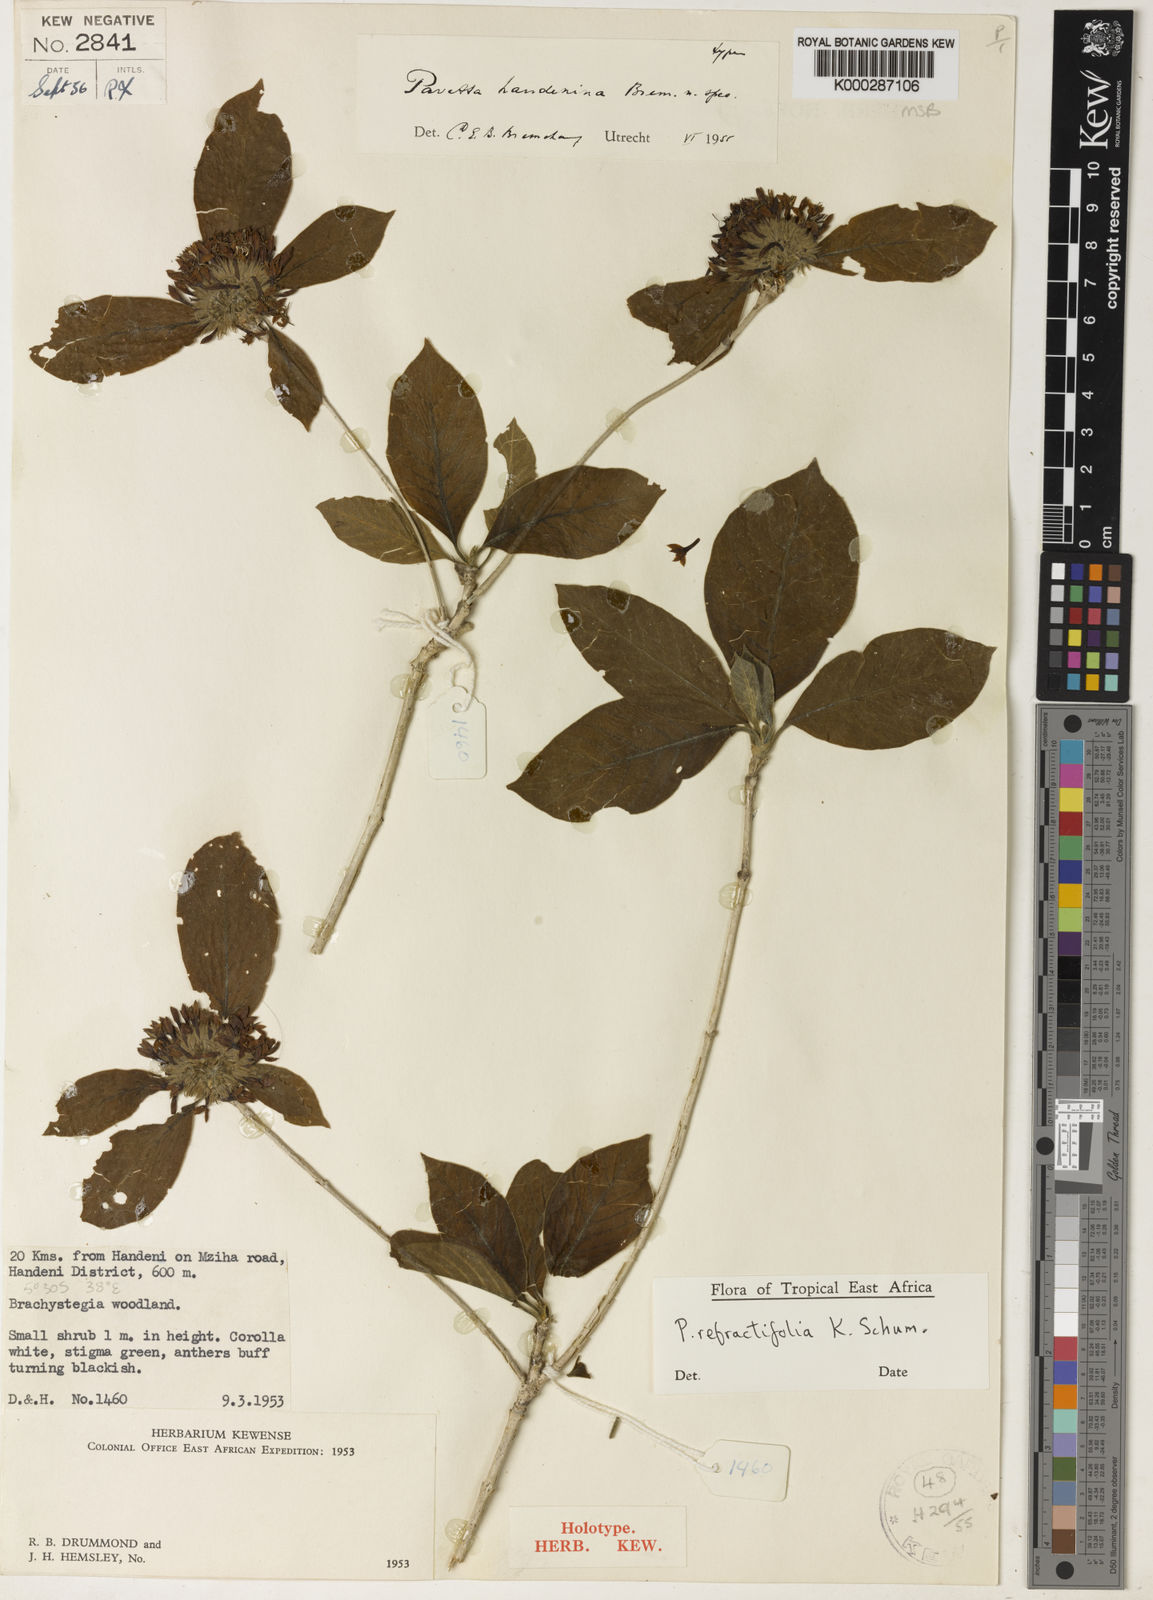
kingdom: Plantae
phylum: Tracheophyta
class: Magnoliopsida
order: Gentianales
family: Rubiaceae
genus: Pavetta
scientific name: Pavetta refractifolia
